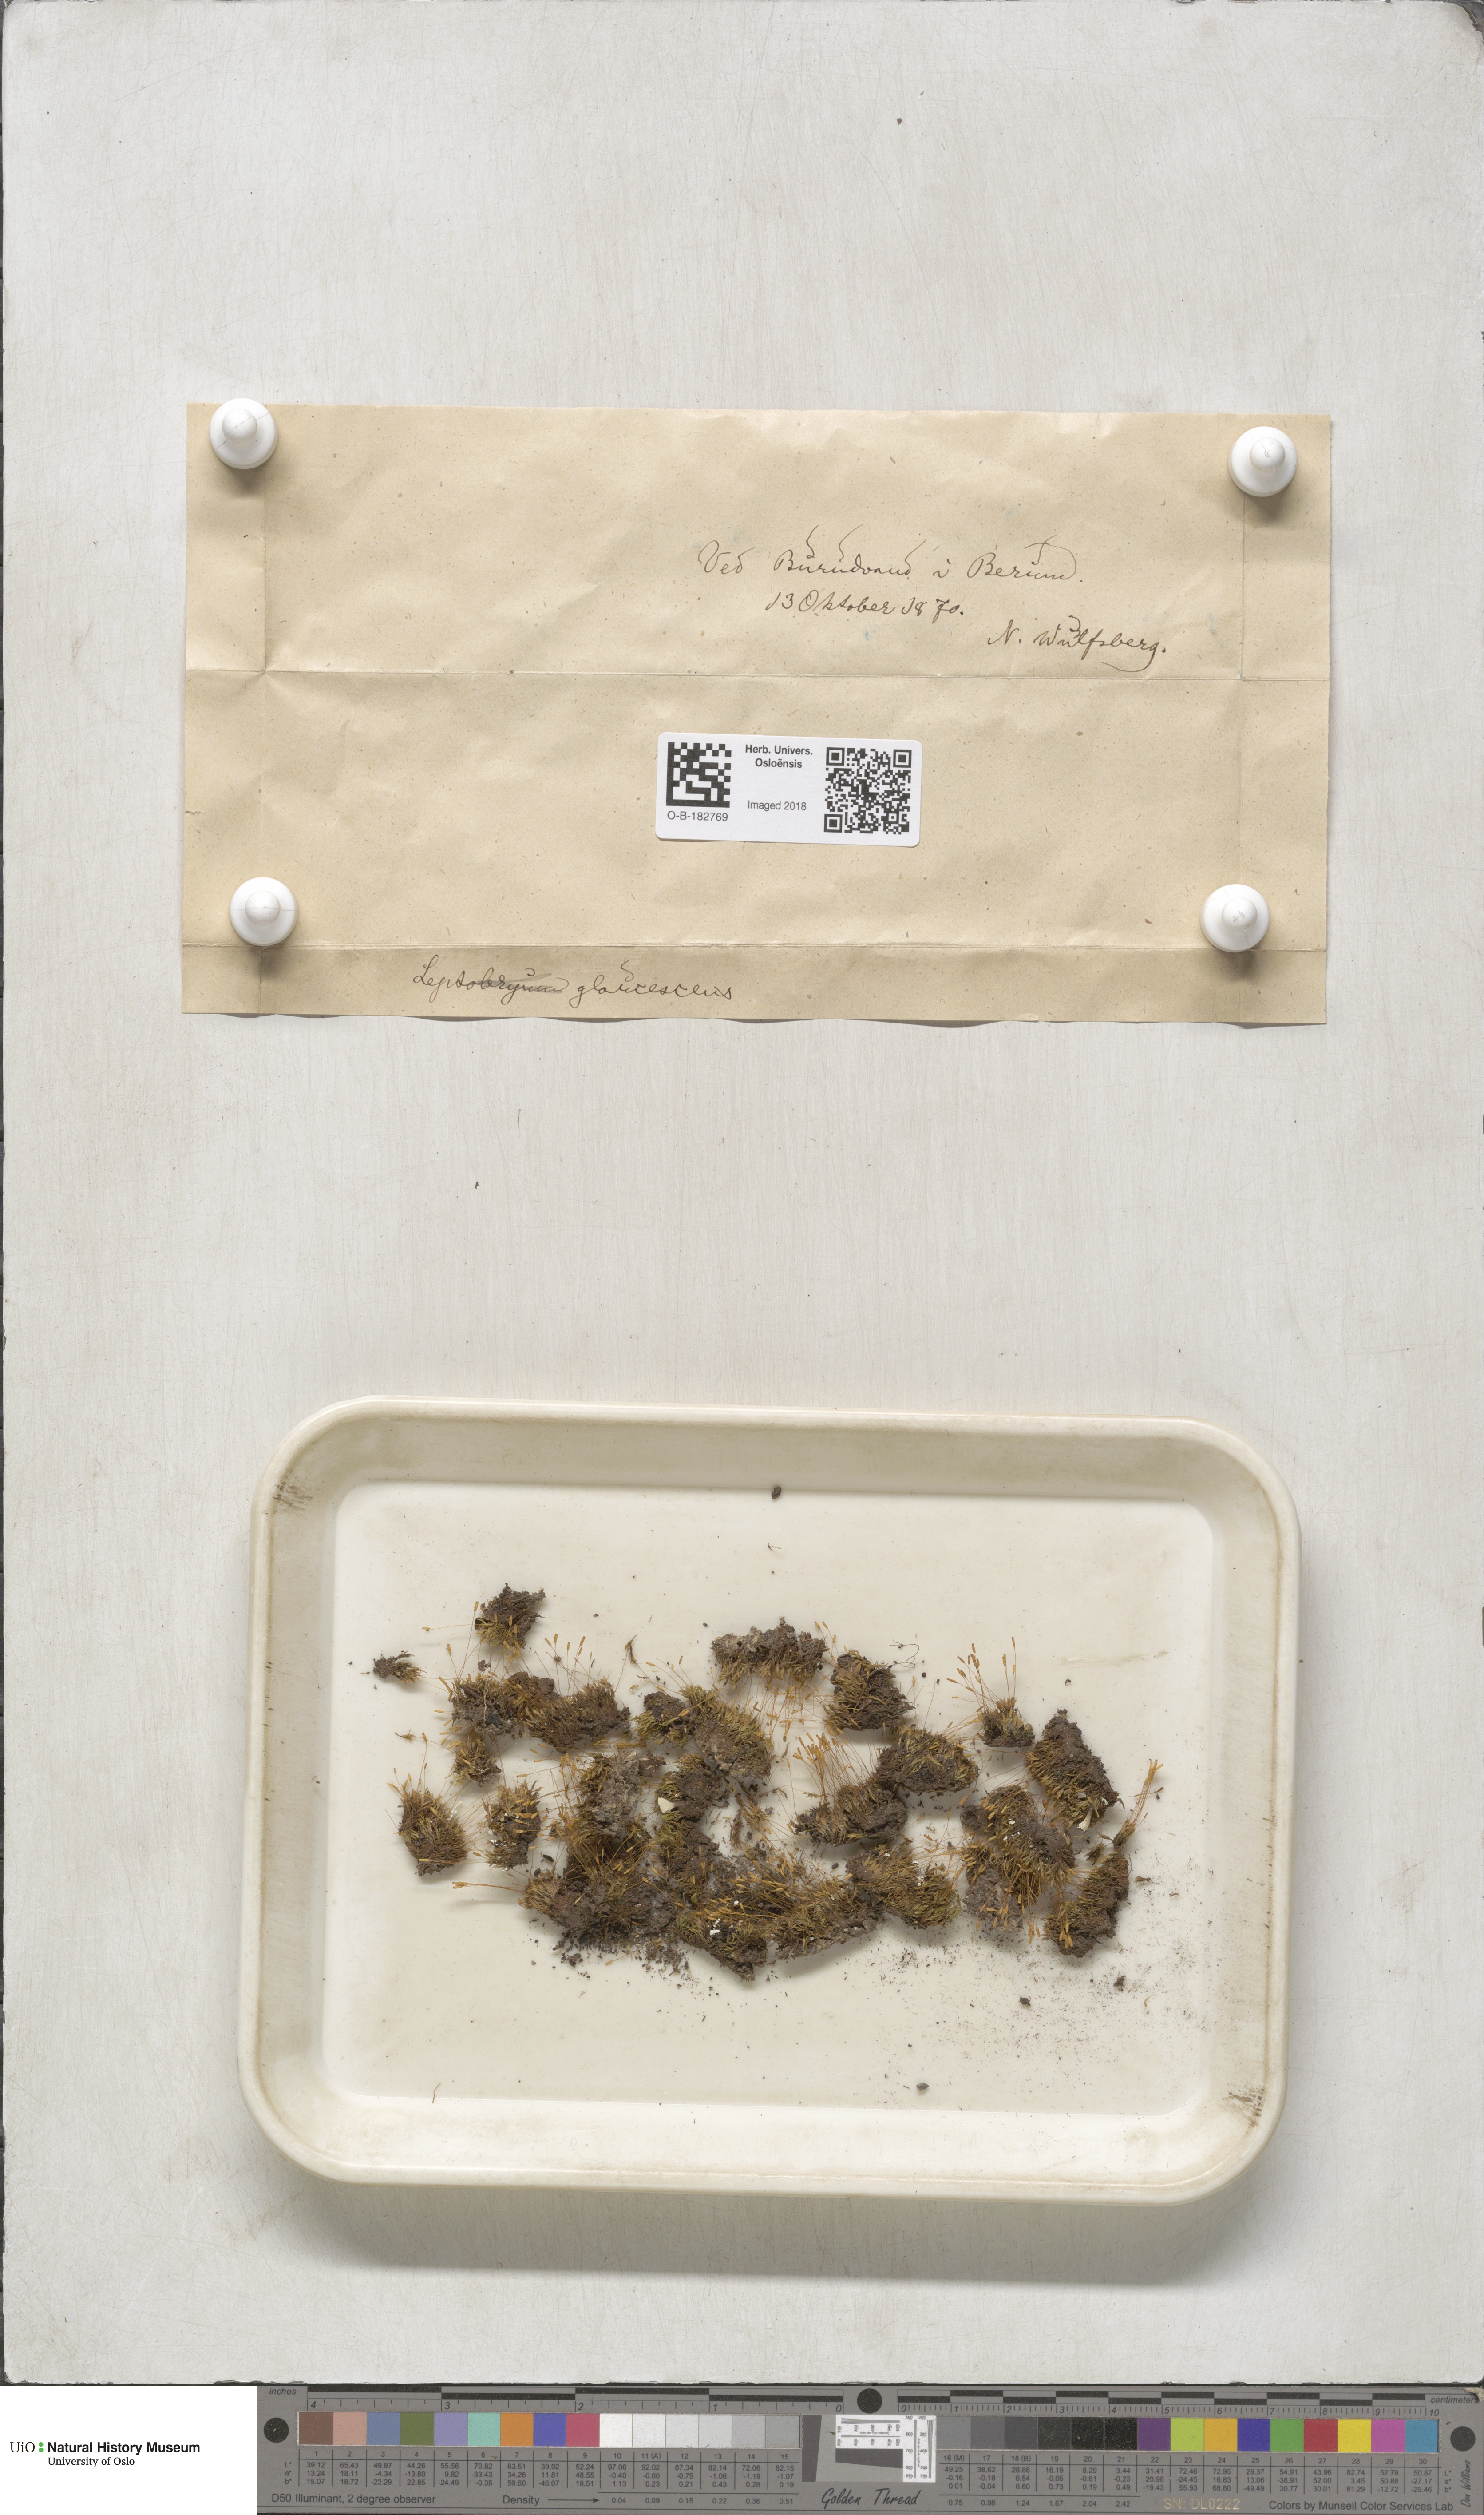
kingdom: Plantae
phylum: Bryophyta
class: Bryopsida
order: Grimmiales
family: Saelaniaceae
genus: Saelania
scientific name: Saelania glaucescens
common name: Blue dew-moss
